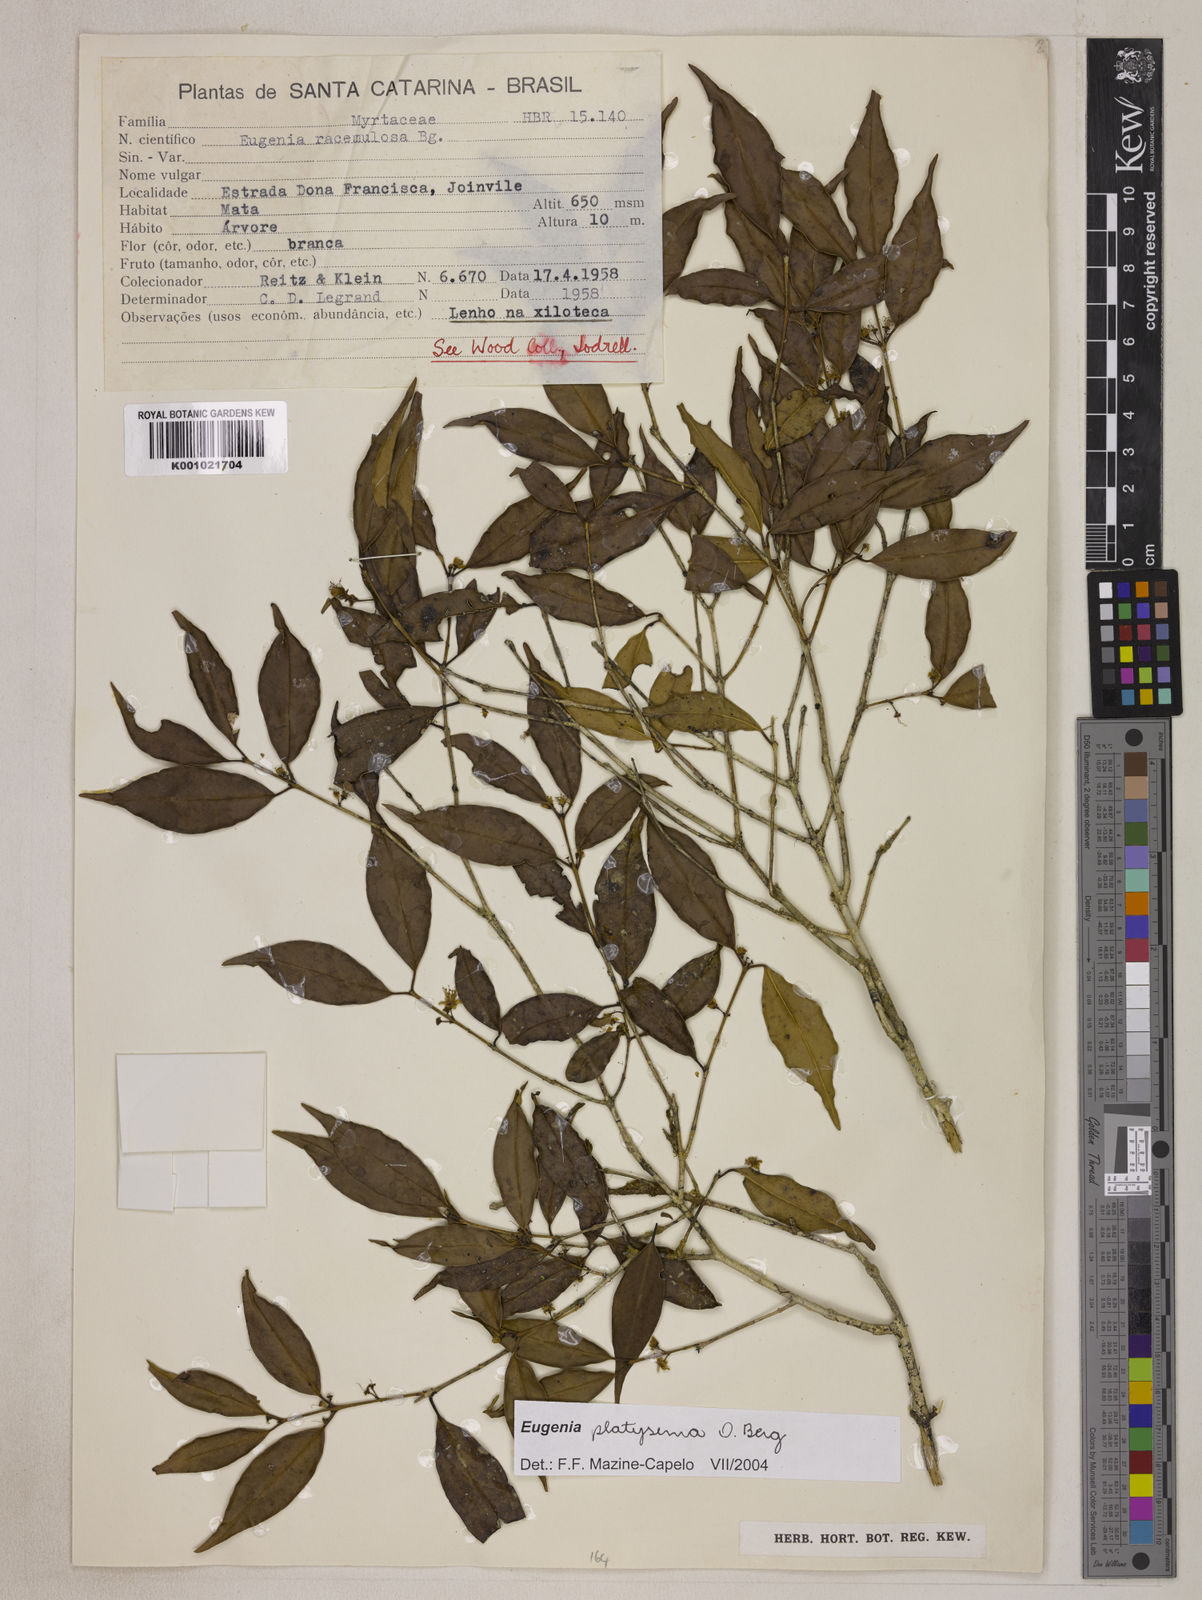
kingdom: Plantae
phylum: Tracheophyta
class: Magnoliopsida
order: Myrtales
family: Myrtaceae
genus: Eugenia
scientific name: Eugenia platysema
